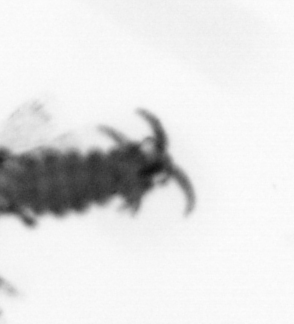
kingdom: Animalia
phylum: Annelida
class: Polychaeta
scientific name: Polychaeta
